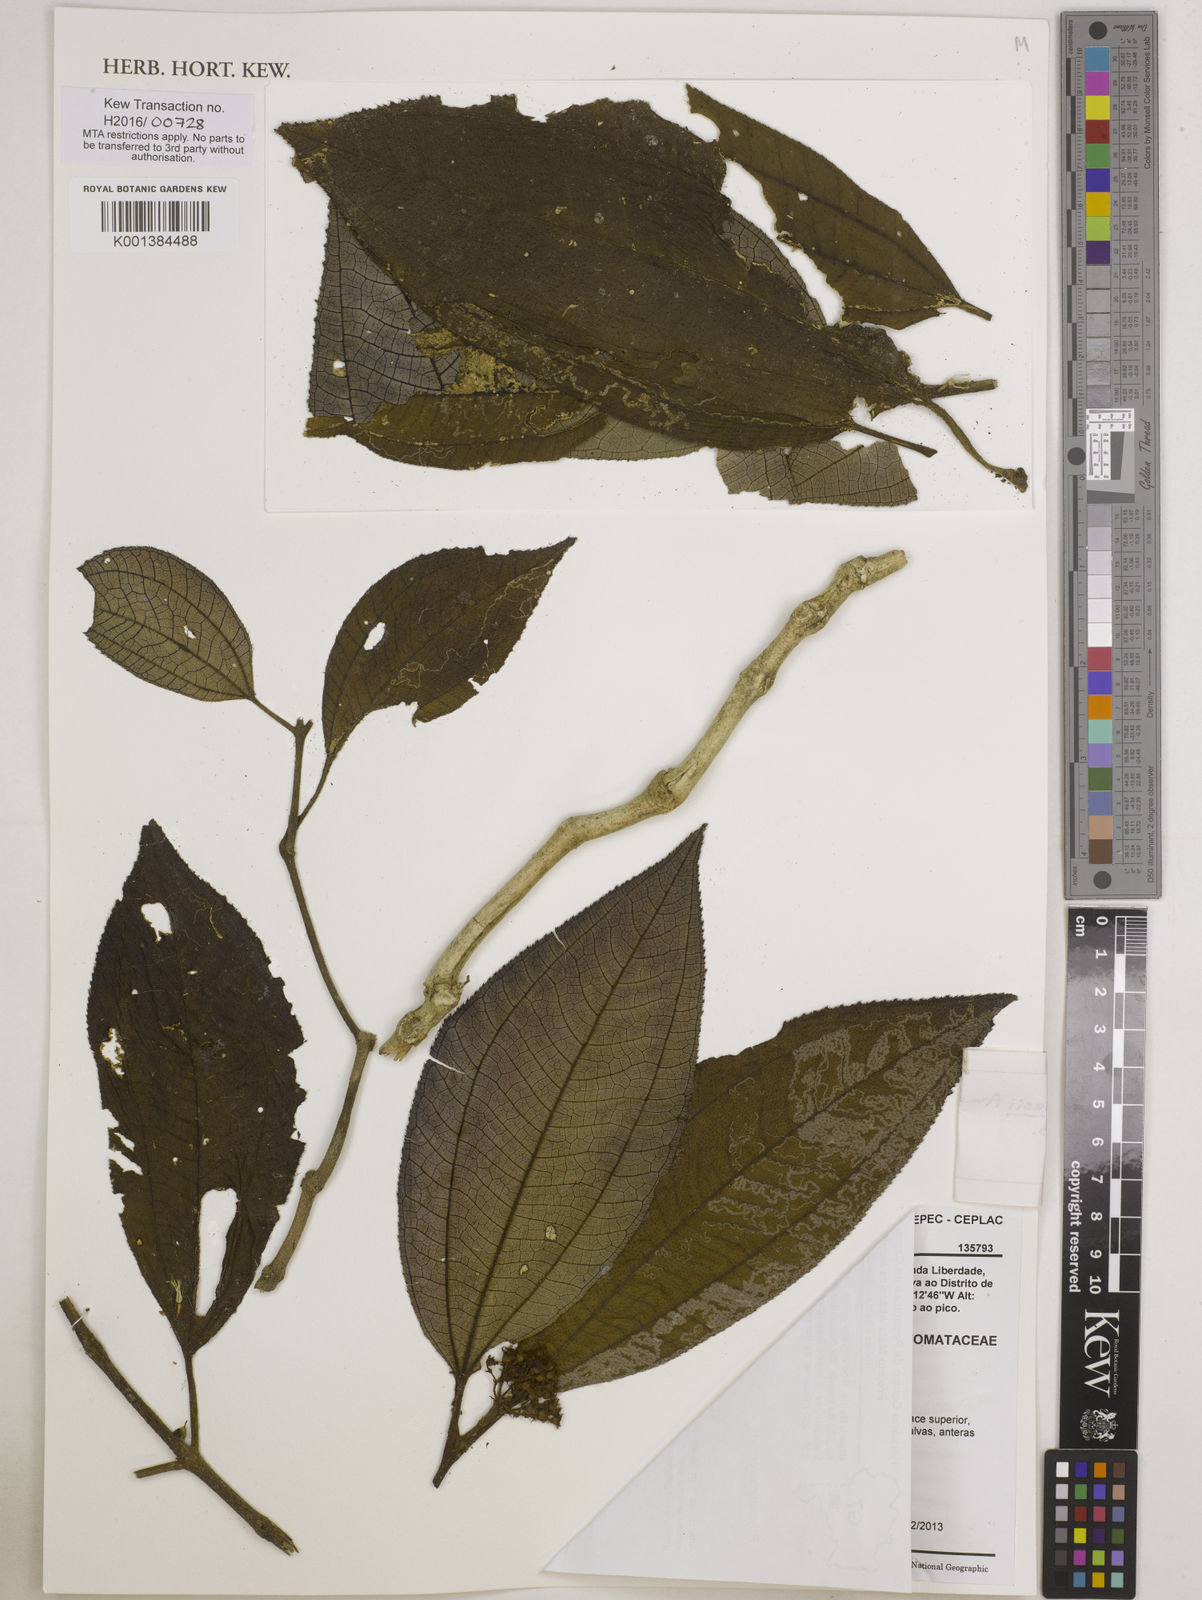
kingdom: Plantae
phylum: Tracheophyta
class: Magnoliopsida
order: Myrtales
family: Melastomataceae
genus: Physeterostemon
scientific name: Physeterostemon gomesii
